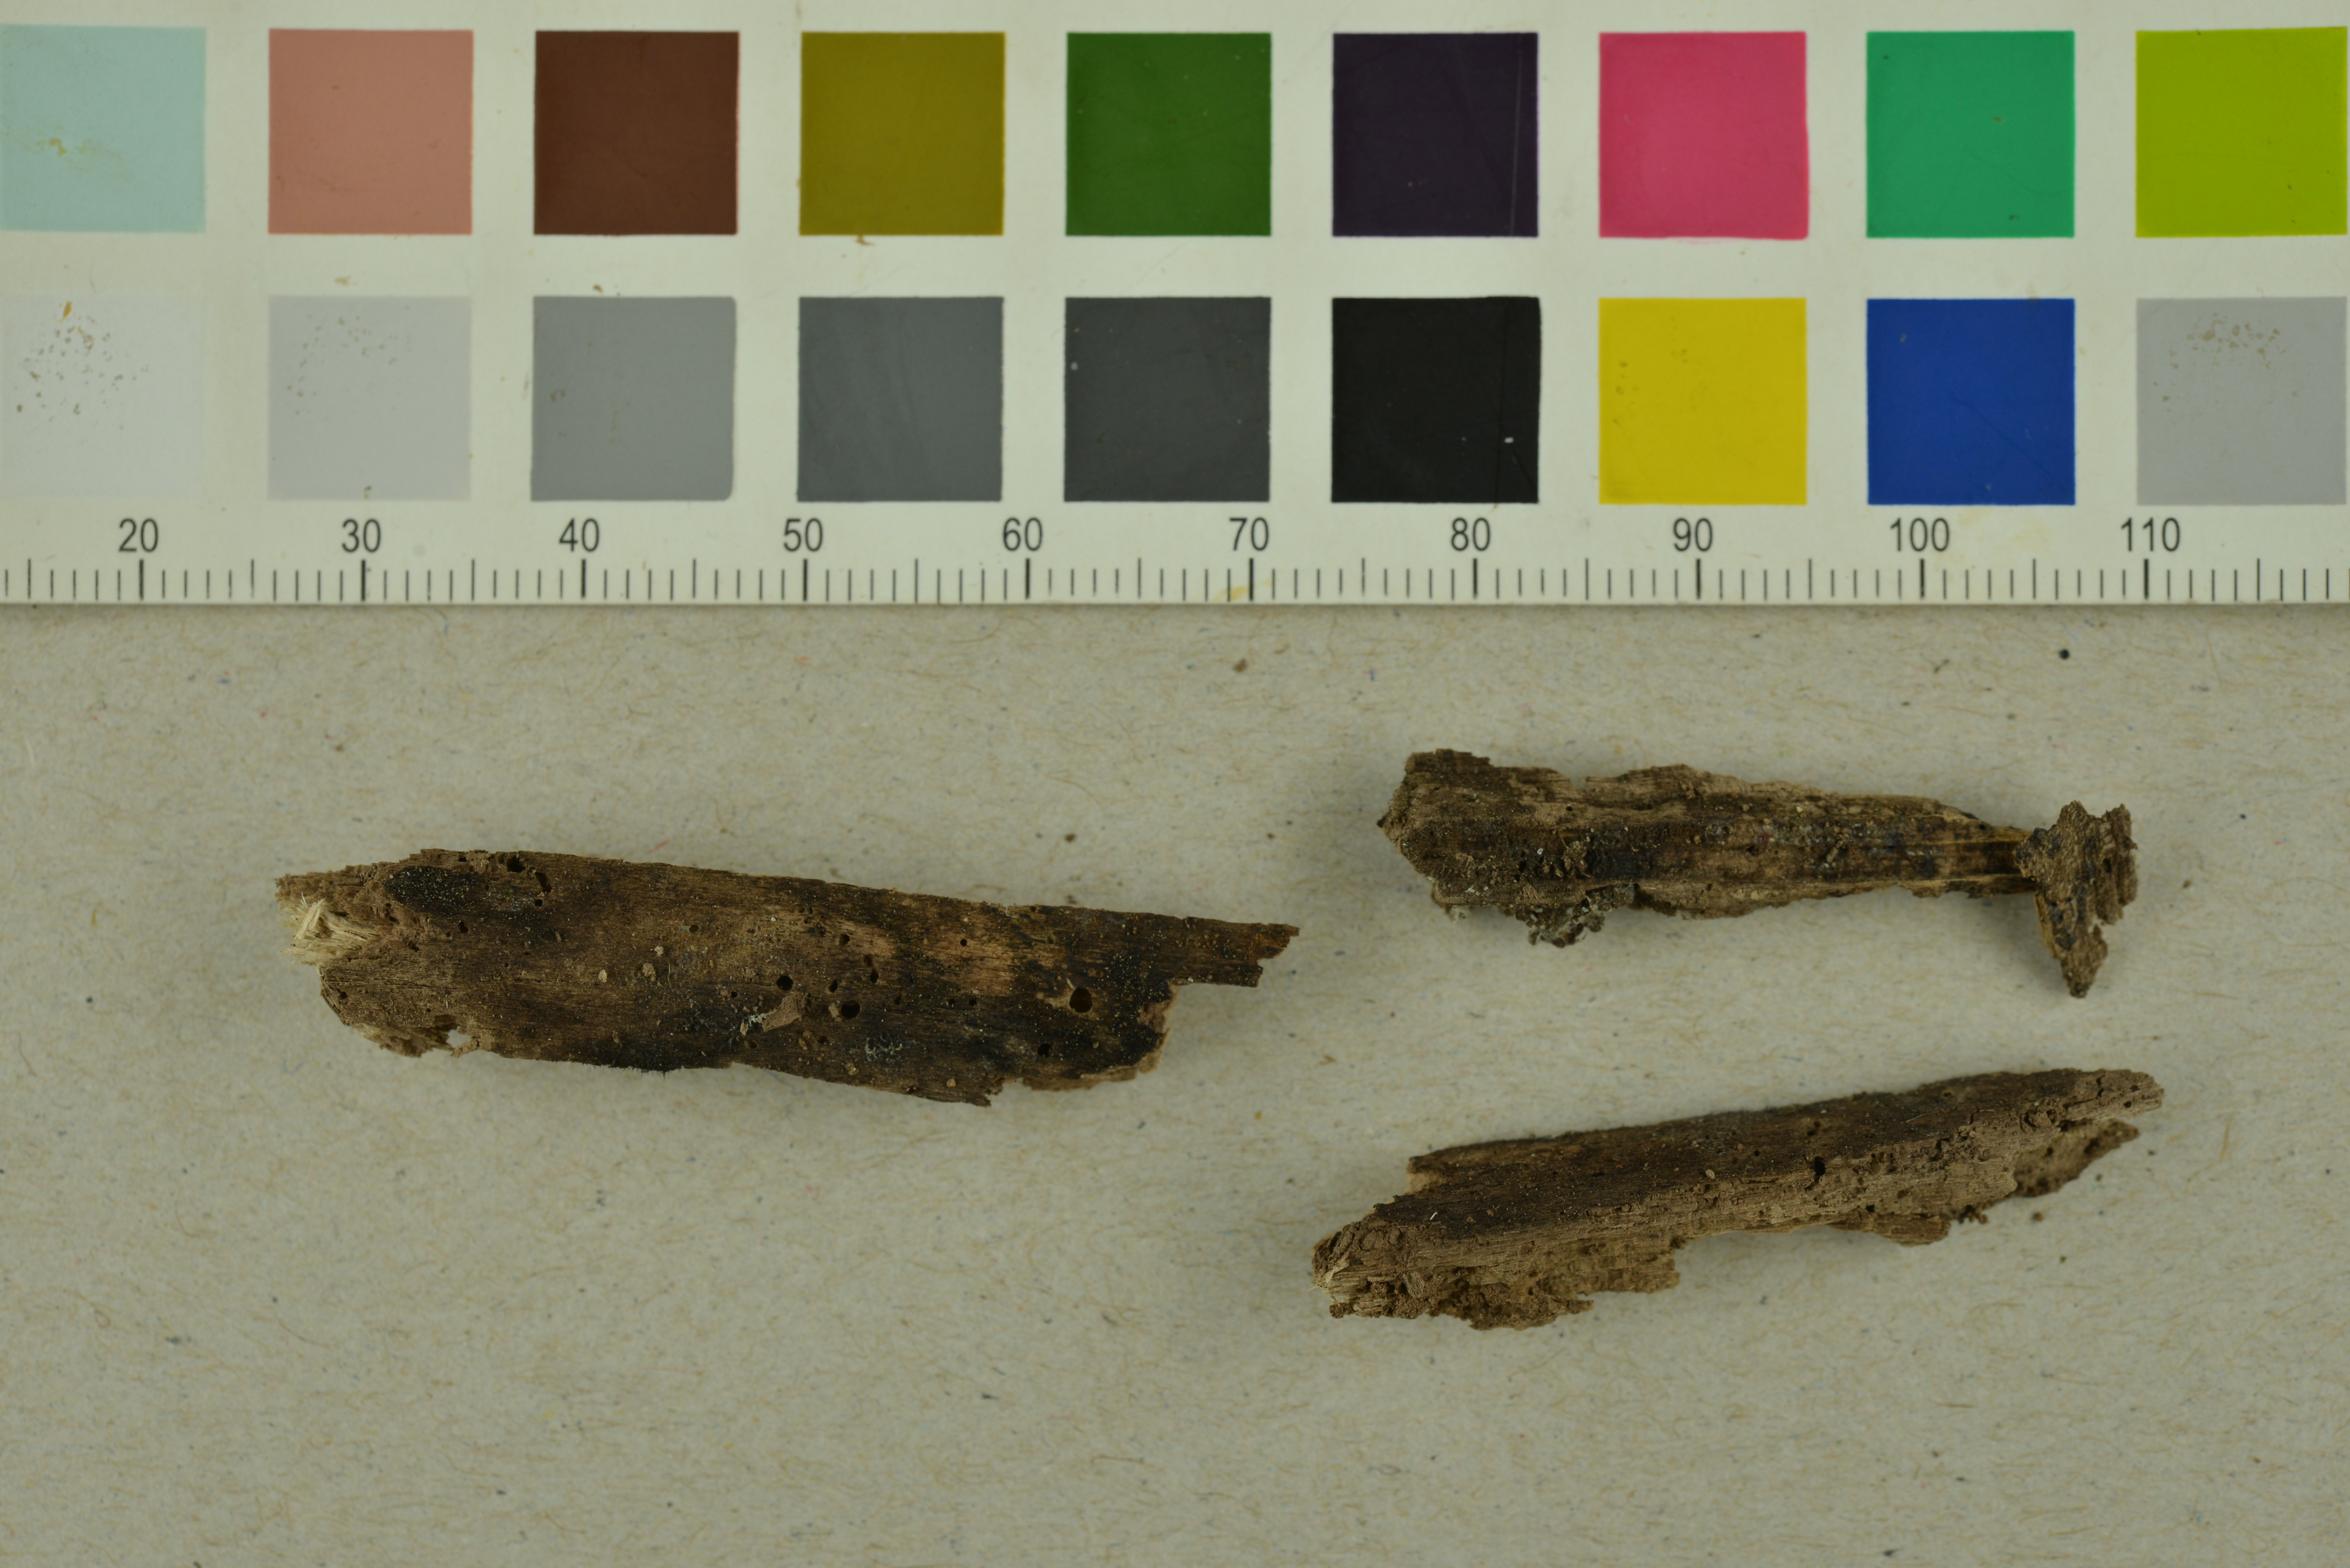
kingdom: Fungi
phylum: Basidiomycota
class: Agaricomycetes
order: Auriculariales
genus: Stypella
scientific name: Stypella grilletii
